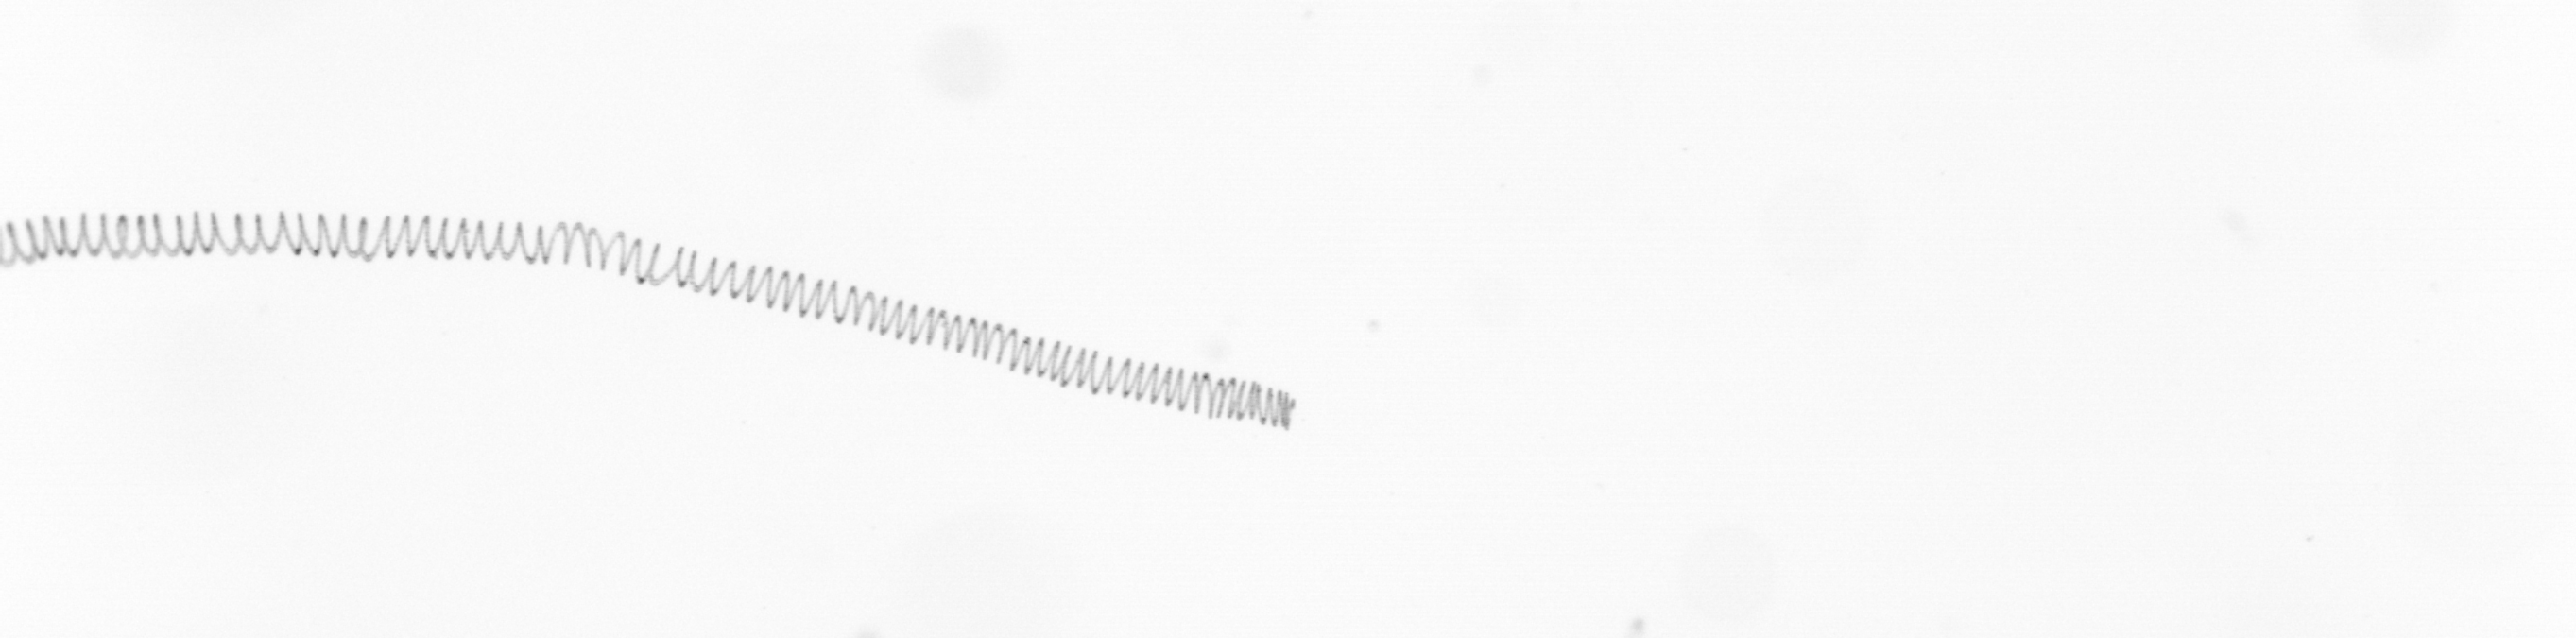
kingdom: Chromista
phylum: Ochrophyta
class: Bacillariophyceae
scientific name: Bacillariophyceae
